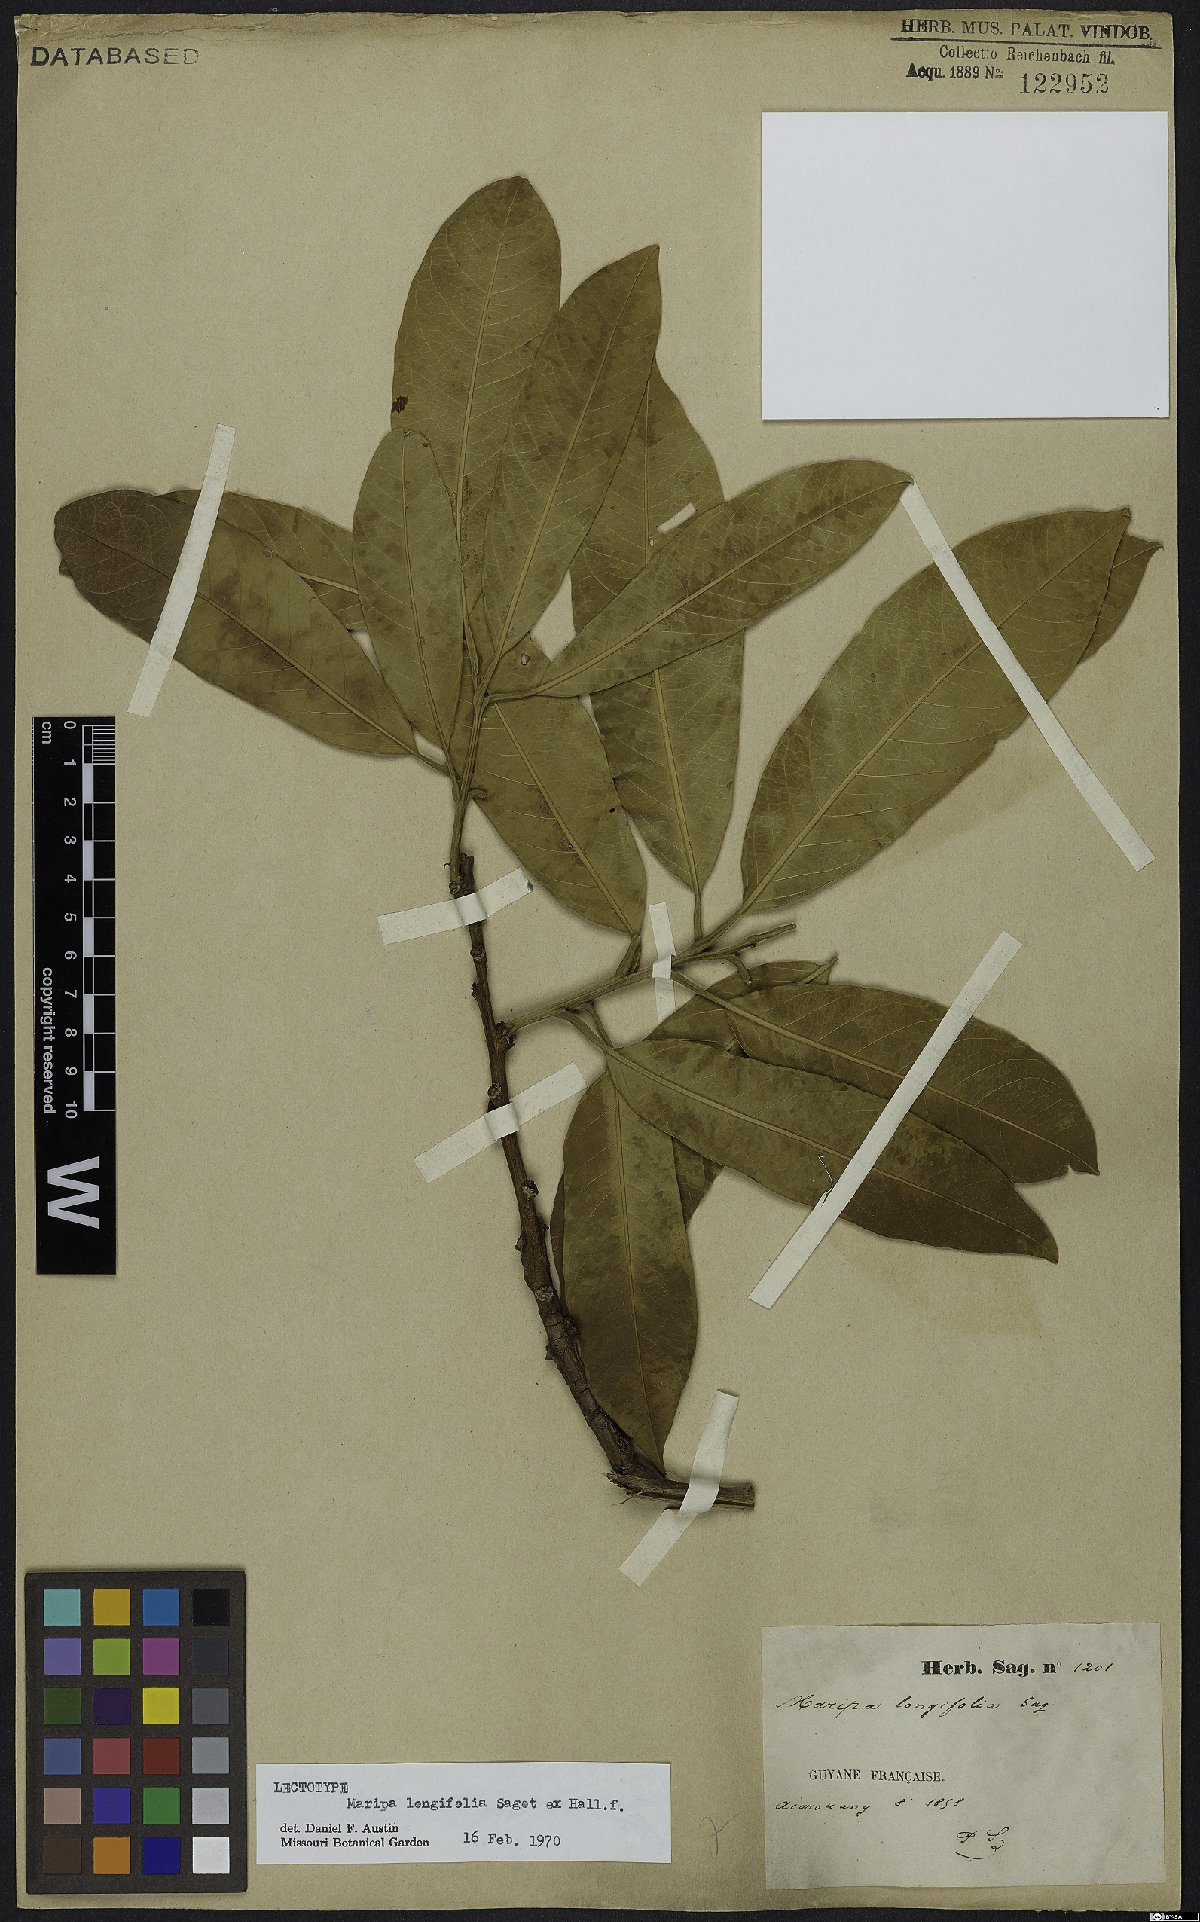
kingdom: Plantae
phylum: Tracheophyta
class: Magnoliopsida
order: Solanales
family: Convolvulaceae
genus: Maripa
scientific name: Maripa longifolia
